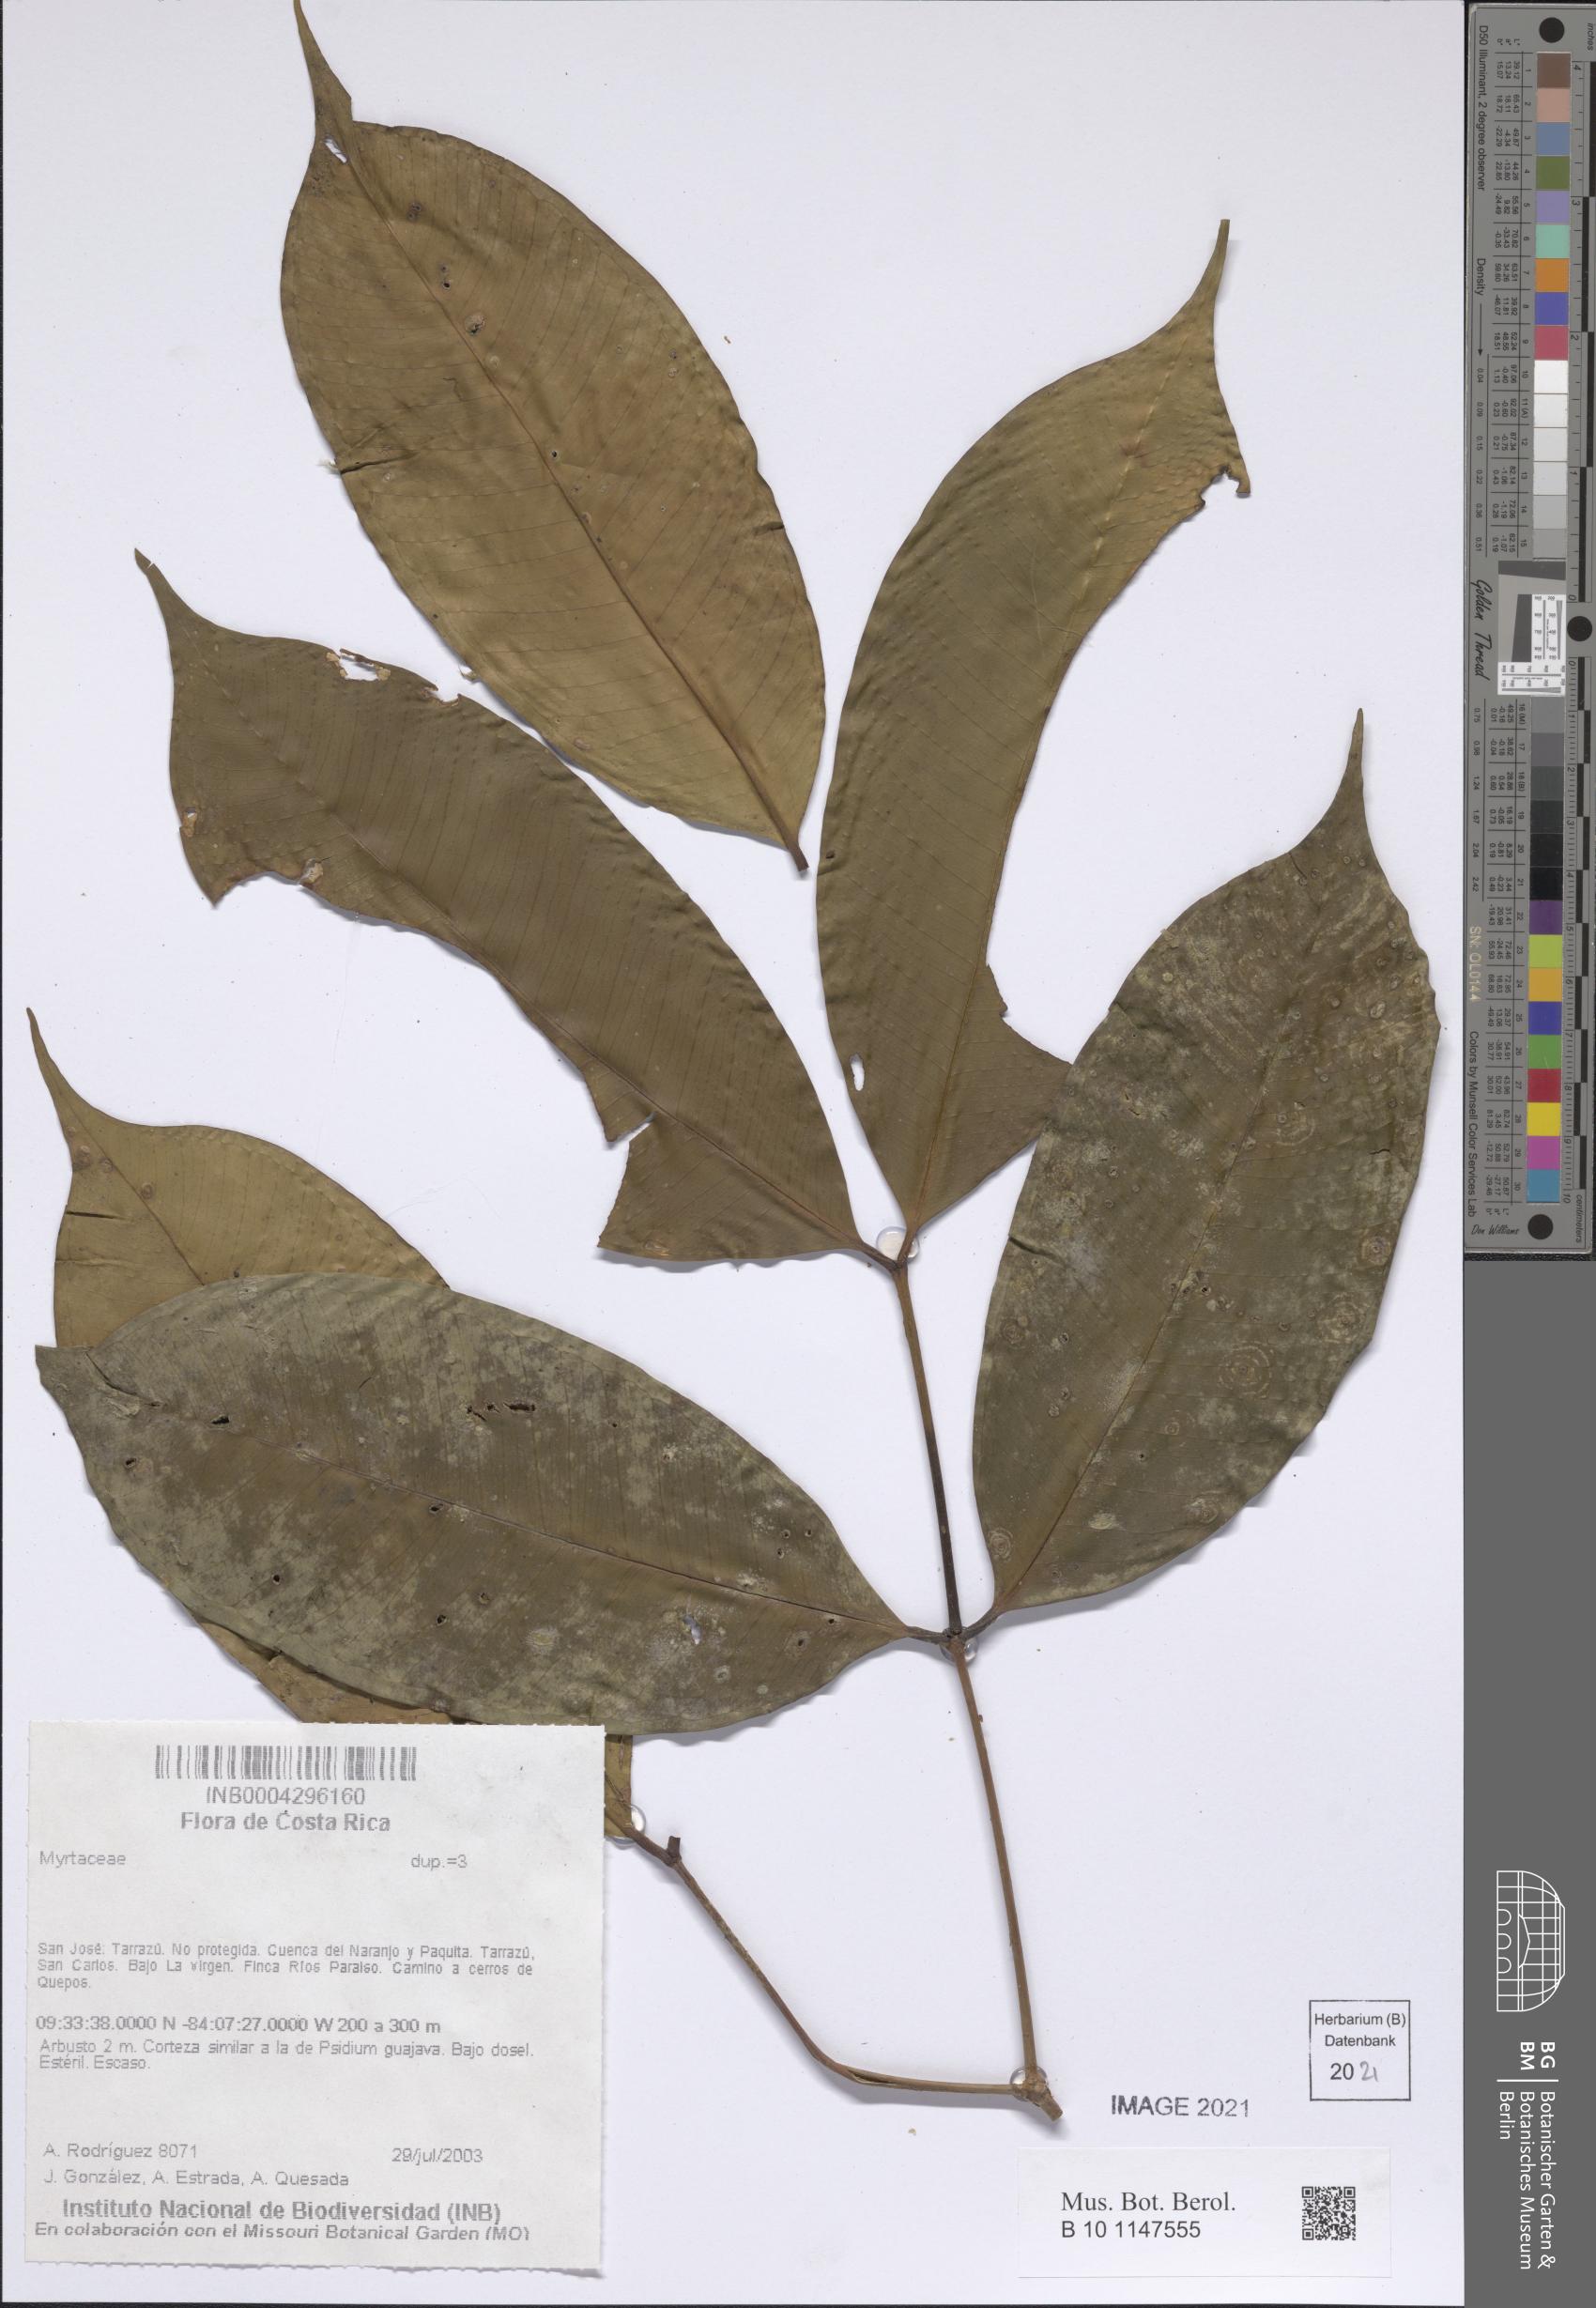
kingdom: Plantae
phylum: Tracheophyta
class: Magnoliopsida
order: Myrtales
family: Myrtaceae
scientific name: Myrtaceae
